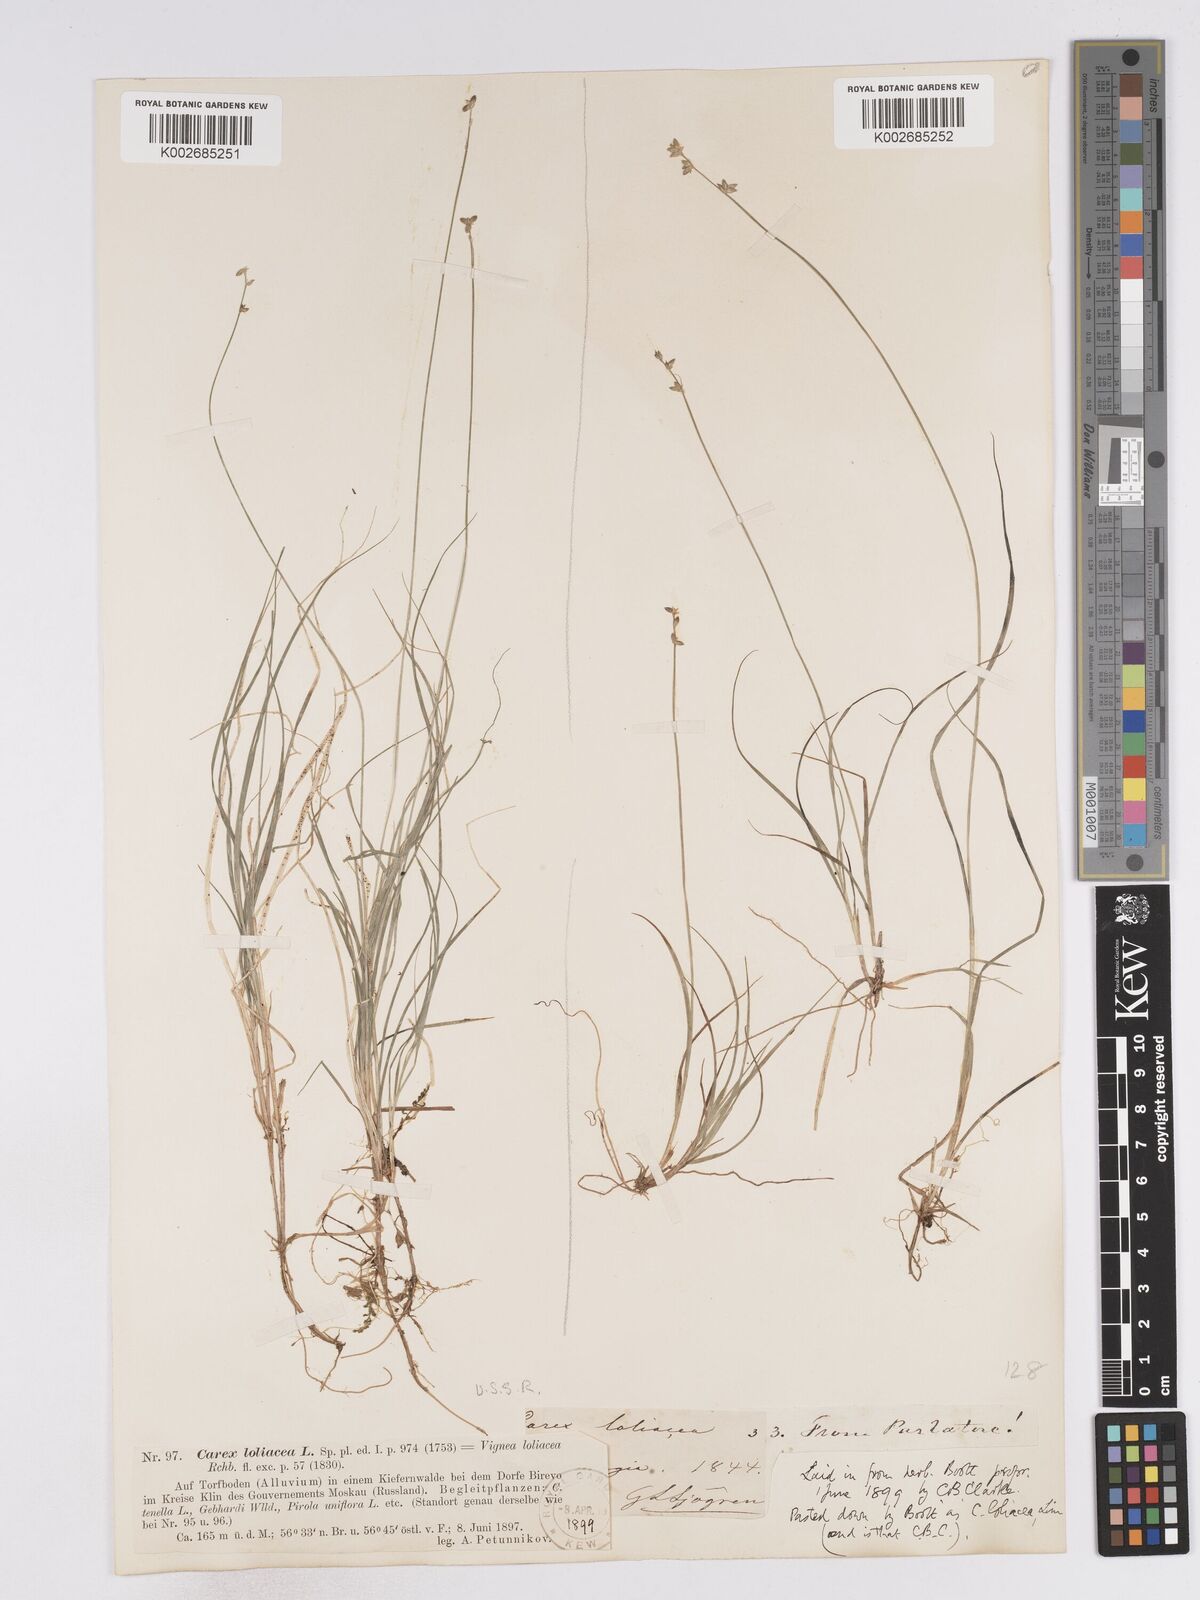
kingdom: Plantae
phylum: Tracheophyta
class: Liliopsida
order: Poales
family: Cyperaceae
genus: Carex
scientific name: Carex loliacea
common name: Ryegrass sedge
